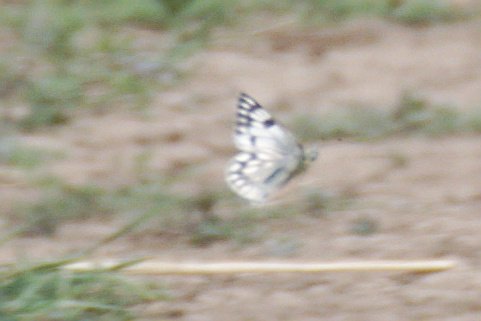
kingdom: Animalia
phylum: Arthropoda
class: Insecta
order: Lepidoptera
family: Pieridae
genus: Pontia
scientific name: Pontia occidentalis
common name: Western White
